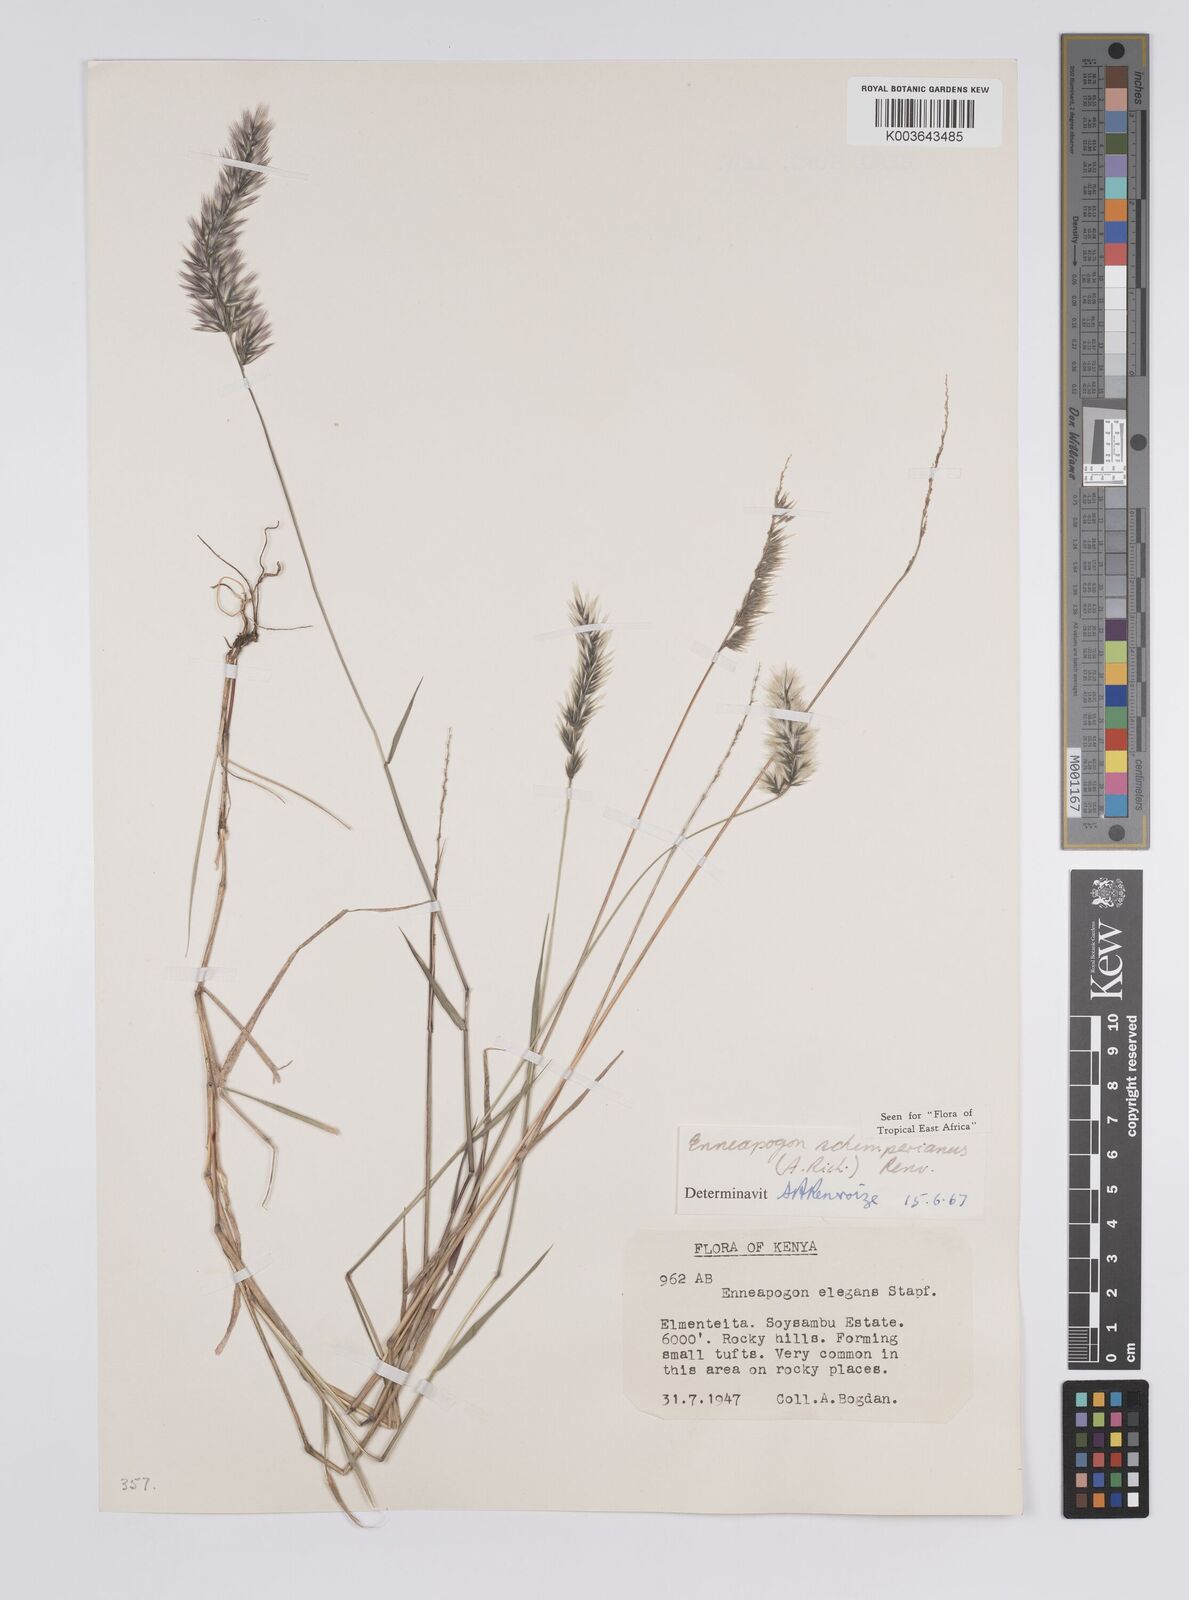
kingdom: Plantae
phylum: Tracheophyta
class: Liliopsida
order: Poales
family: Poaceae
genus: Enneapogon
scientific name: Enneapogon persicus
